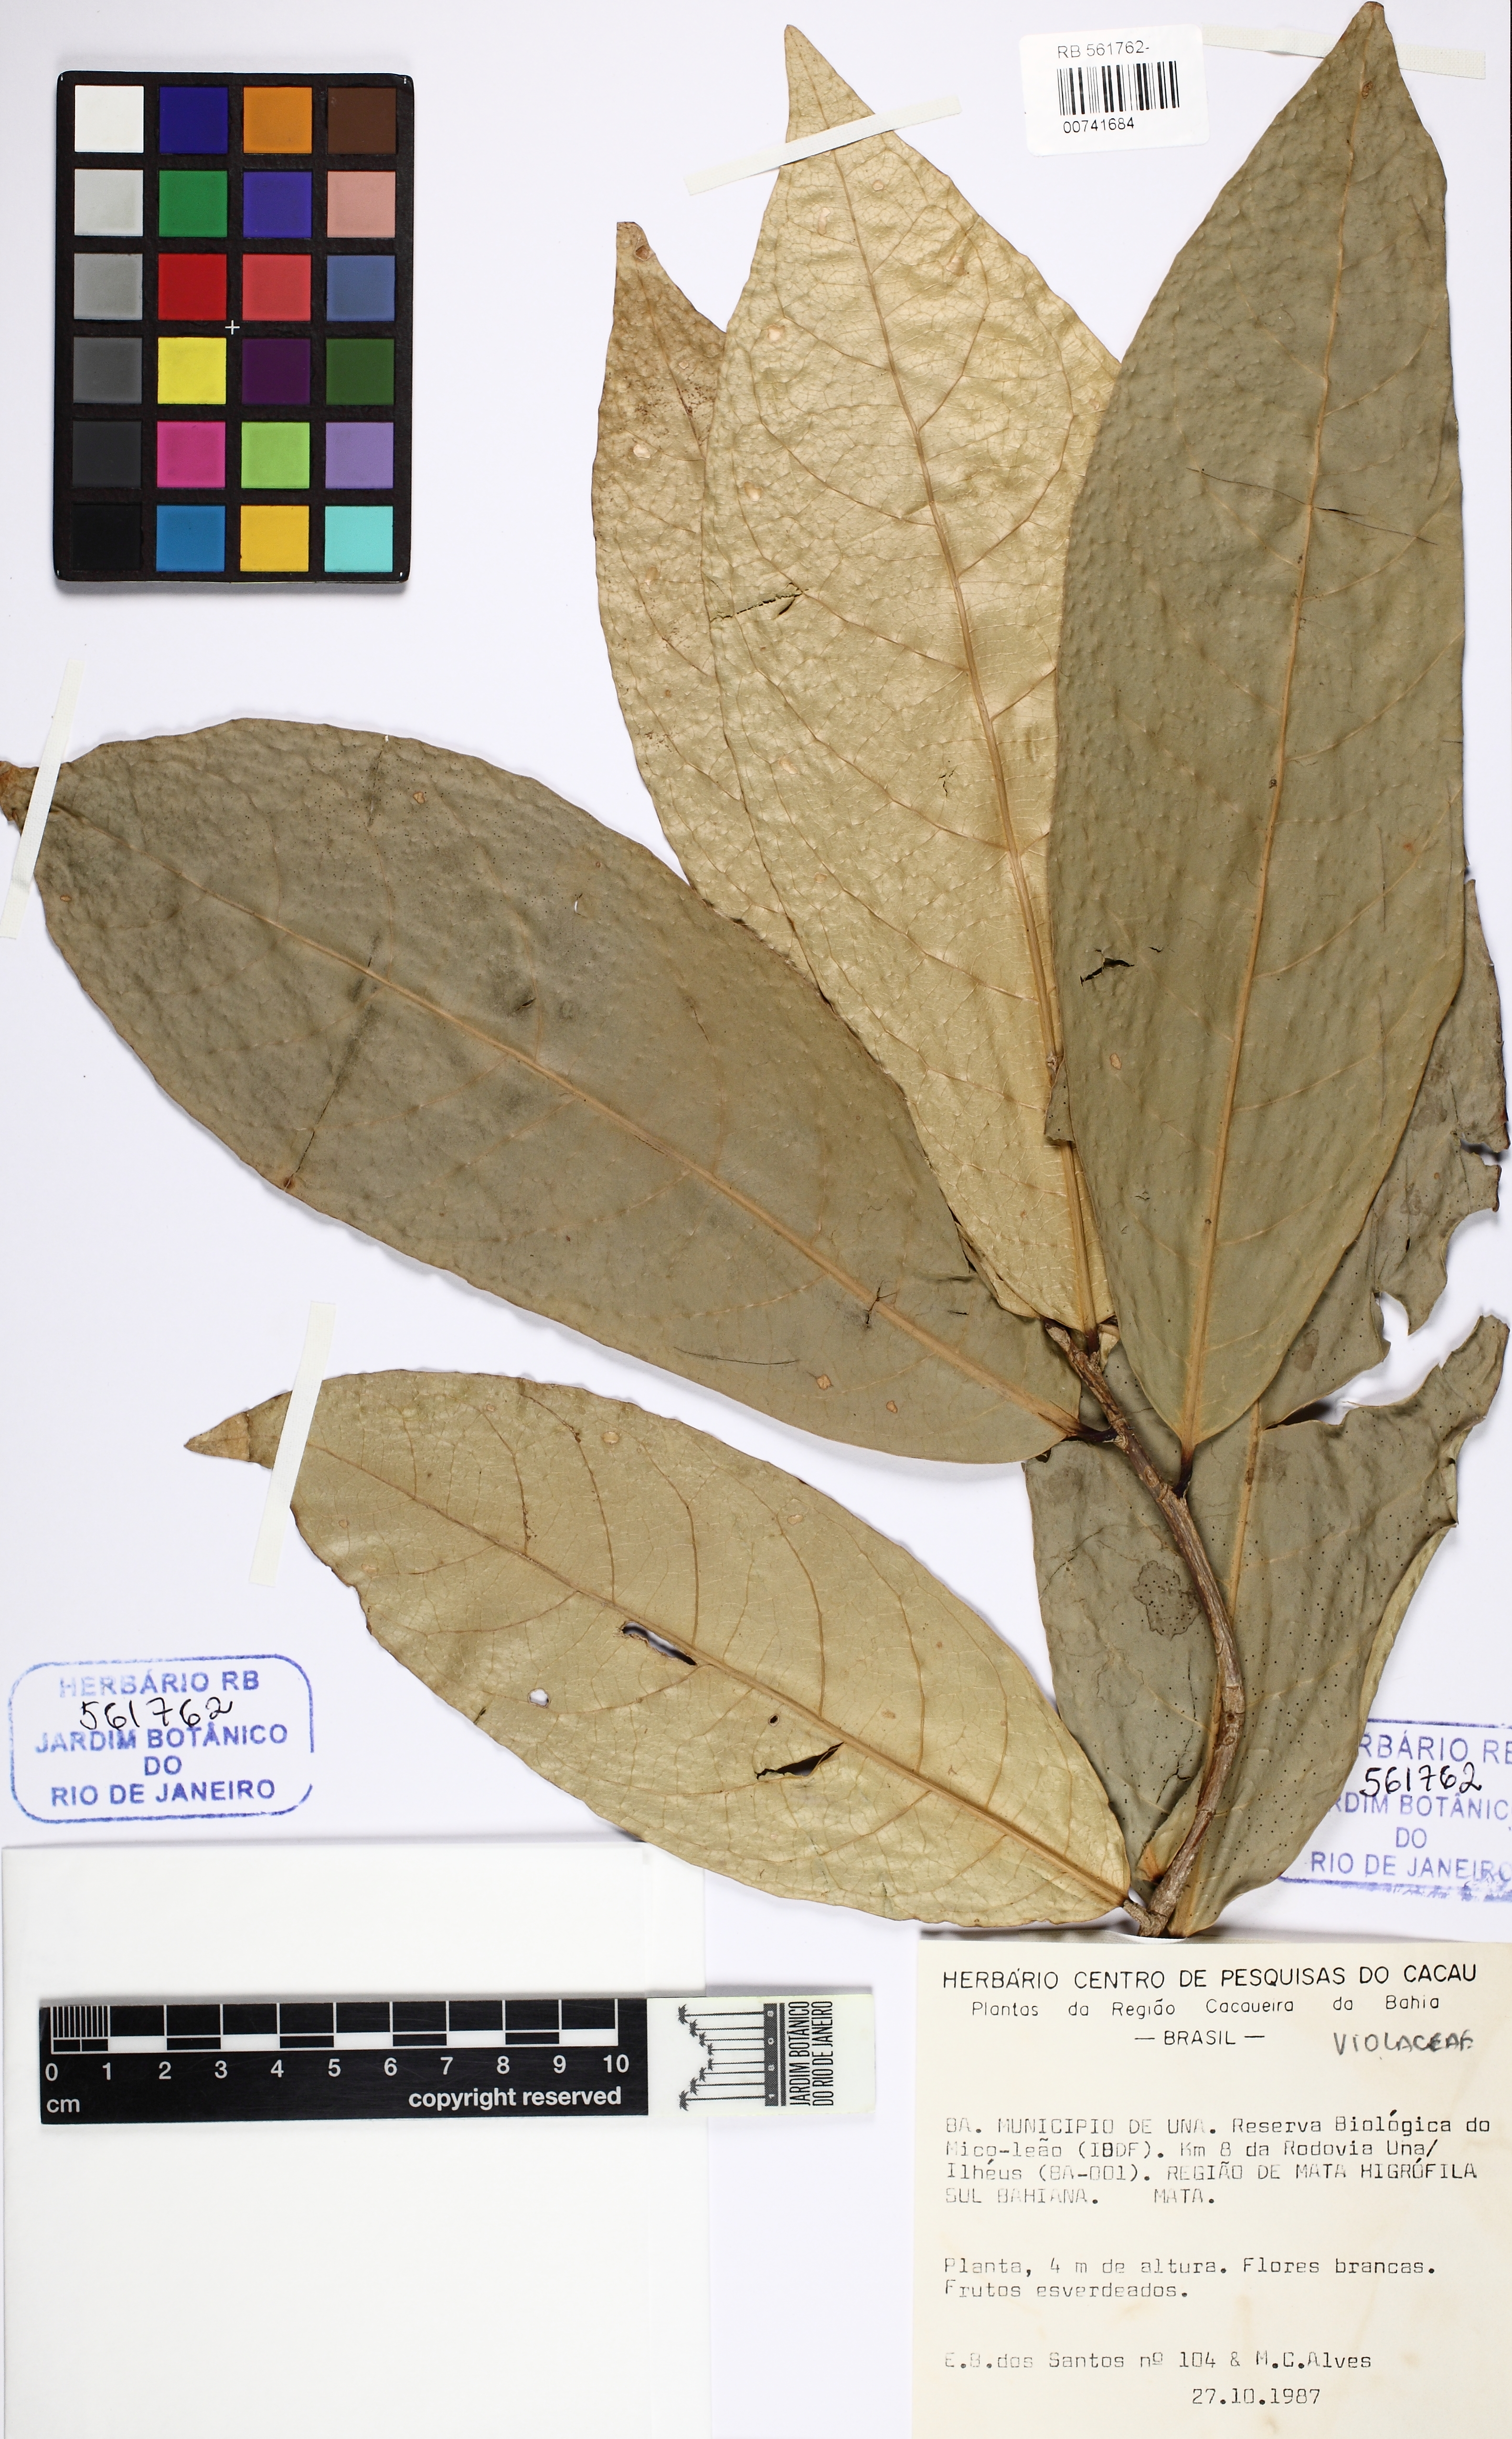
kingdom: Plantae
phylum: Tracheophyta
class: Magnoliopsida
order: Malpighiales
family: Violaceae
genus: Paypayrola
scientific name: Paypayrola blanchetiana
